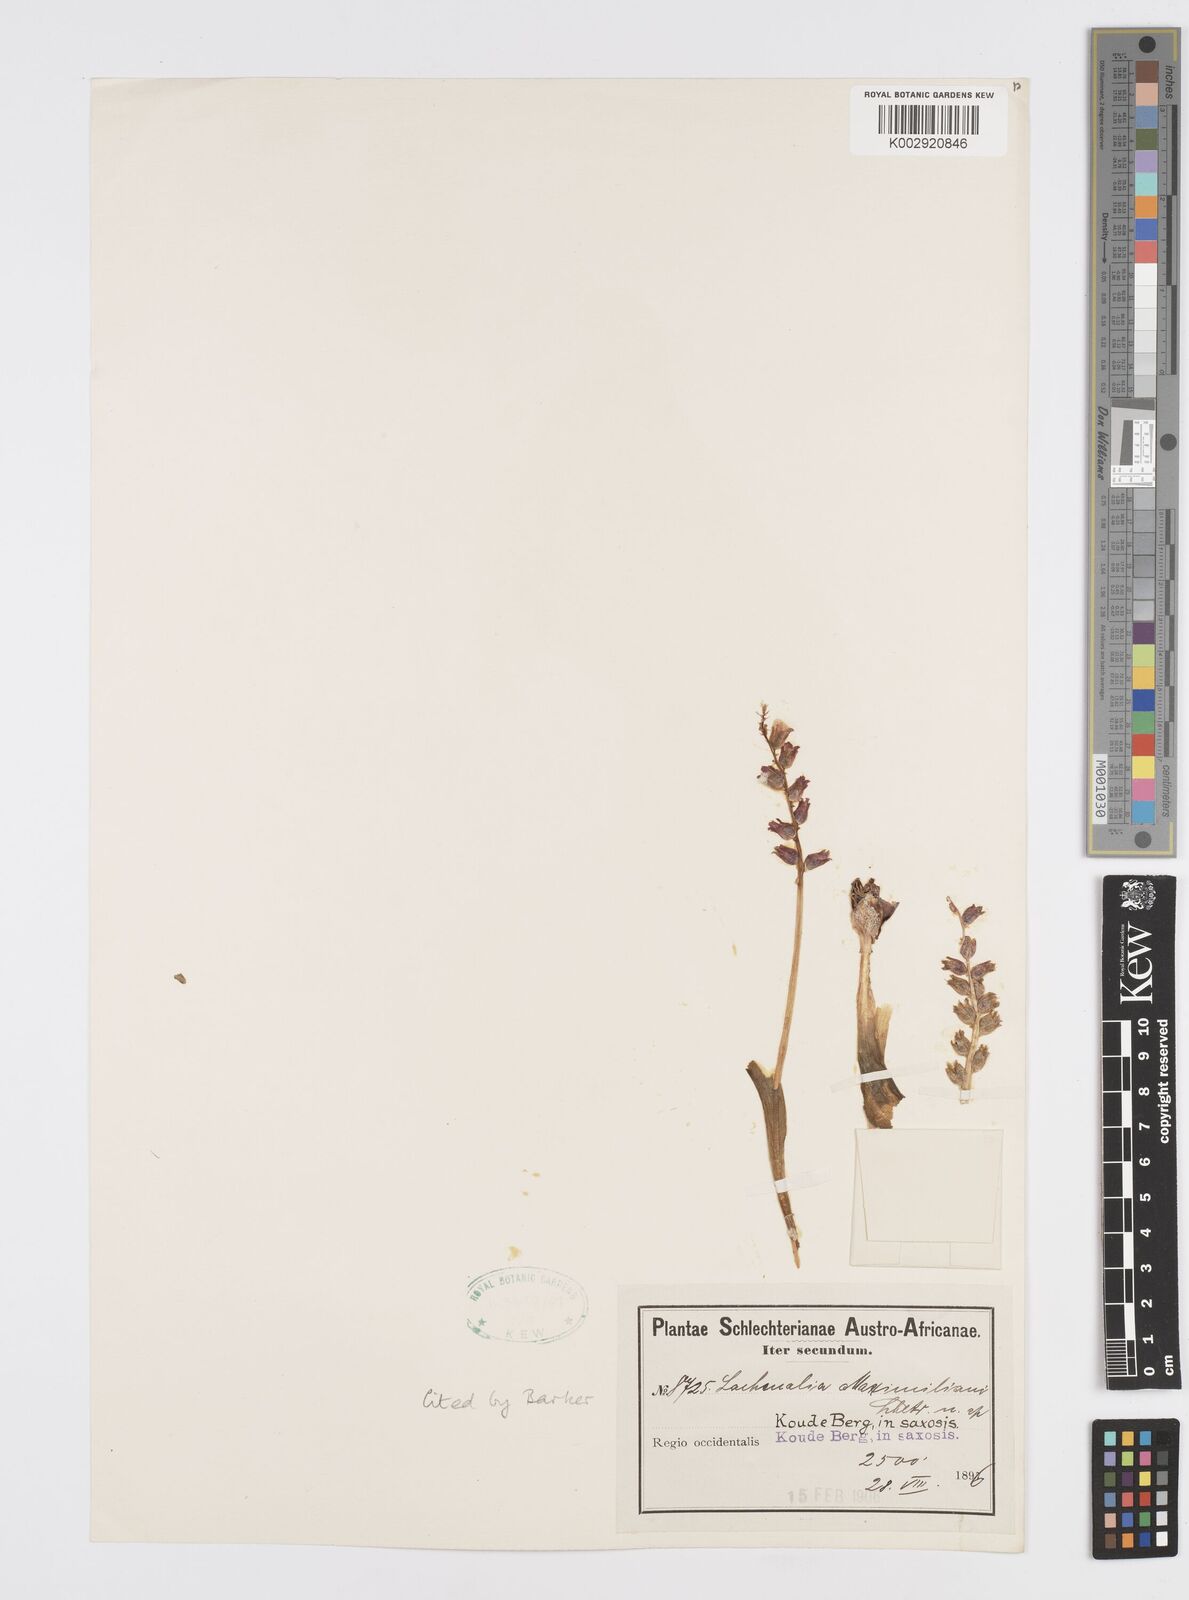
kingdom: Plantae
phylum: Tracheophyta
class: Liliopsida
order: Asparagales
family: Asparagaceae
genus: Lachenalia
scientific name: Lachenalia maximiliani
